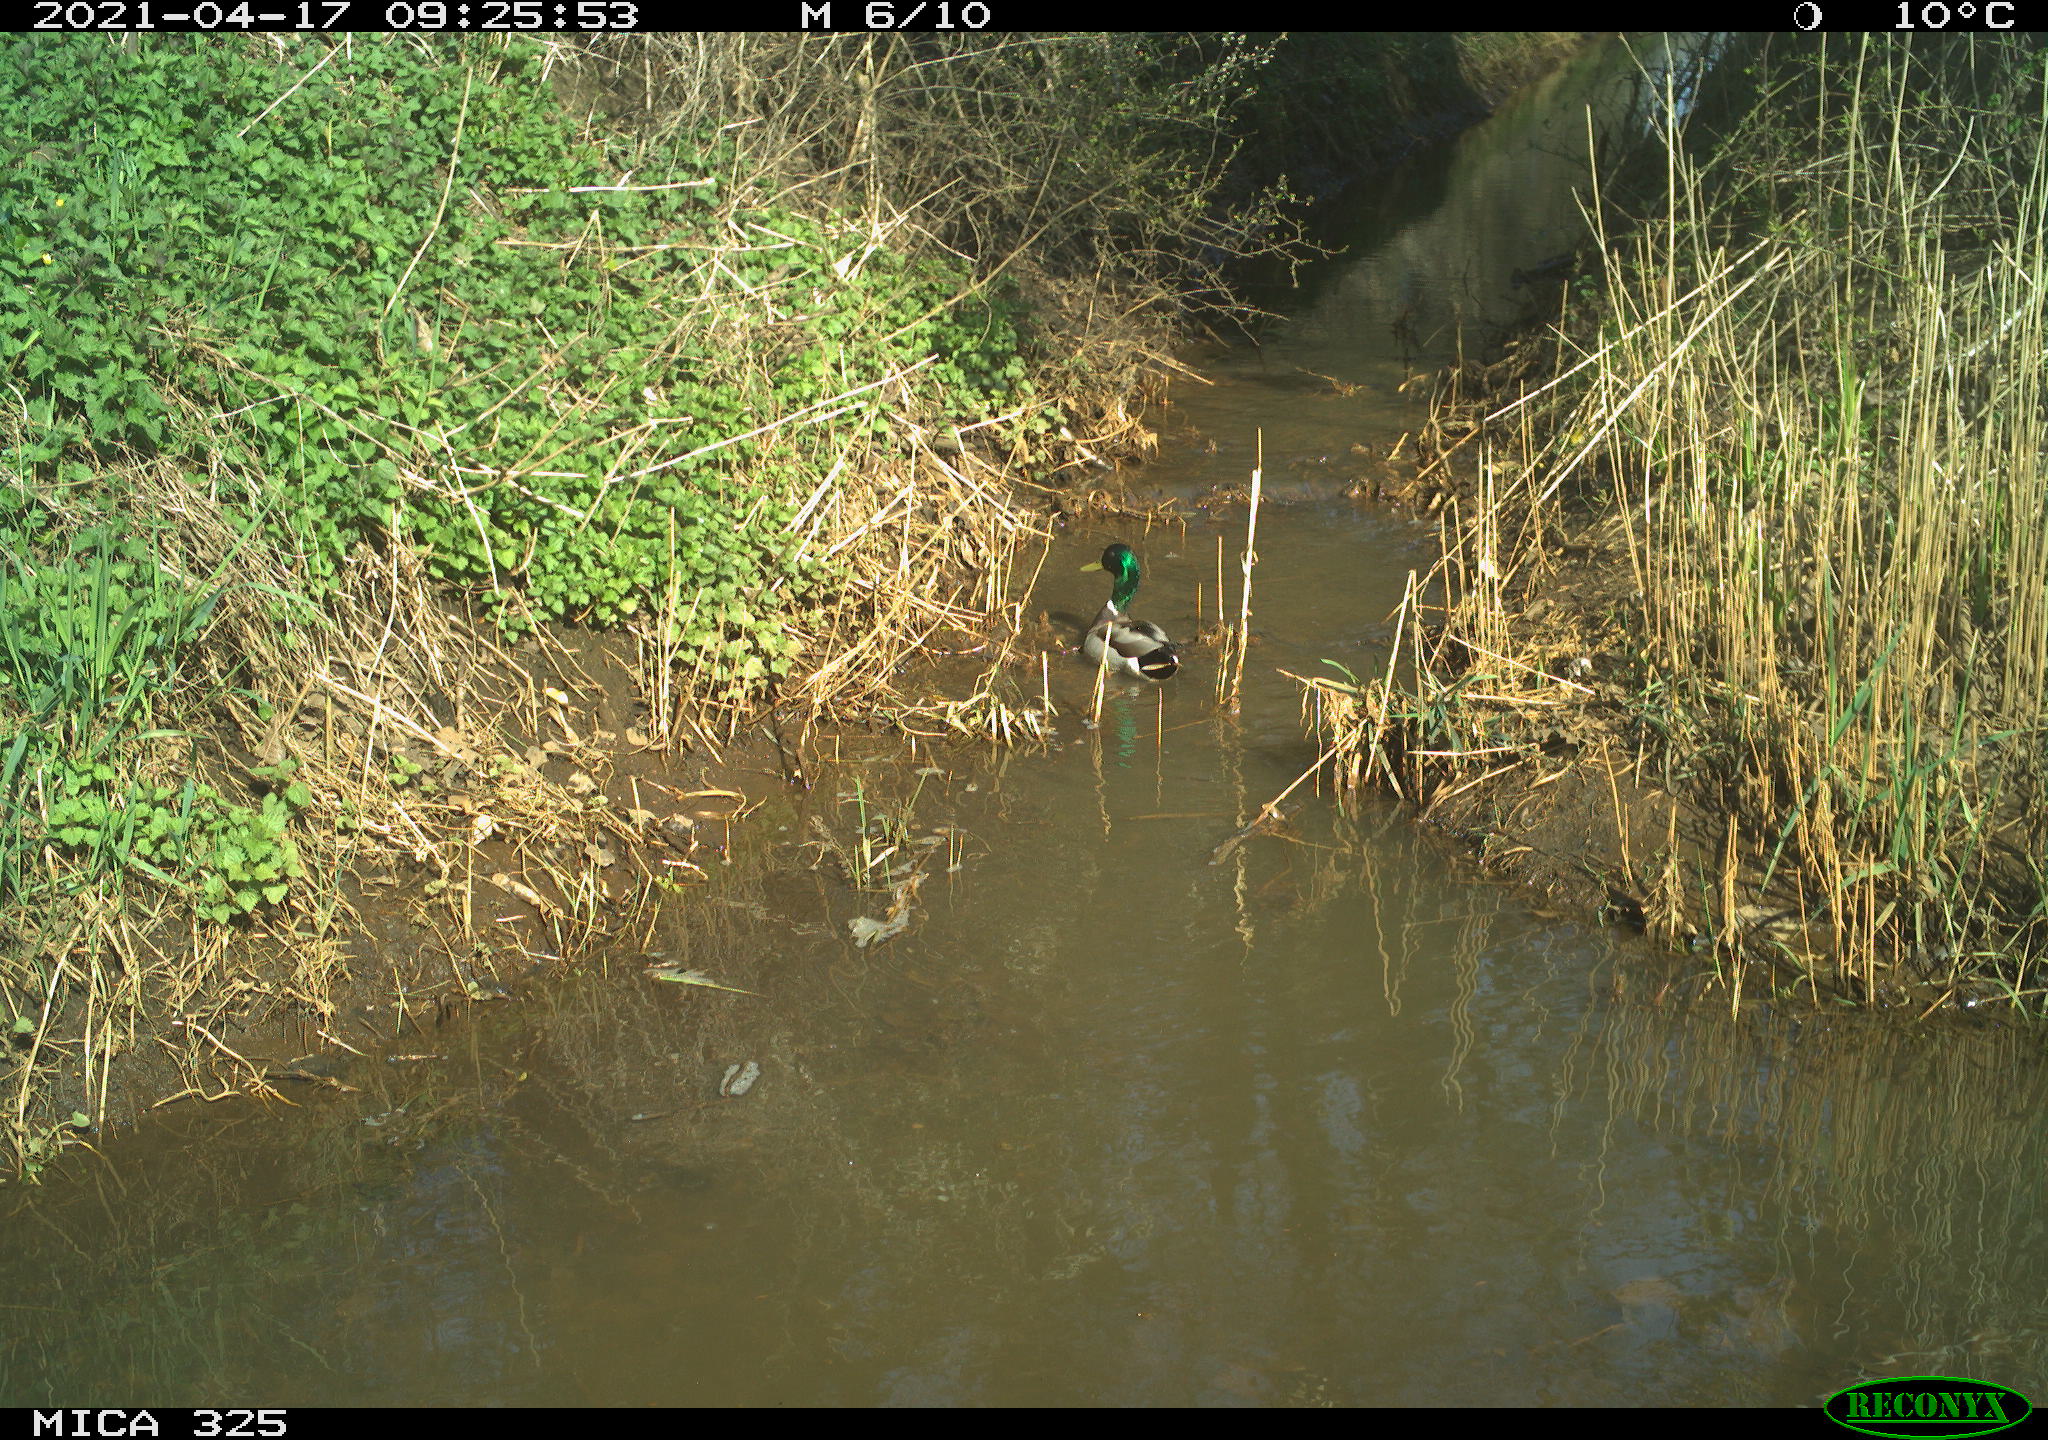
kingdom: Animalia
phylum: Chordata
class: Aves
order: Anseriformes
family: Anatidae
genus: Anas
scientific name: Anas platyrhynchos
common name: Mallard
